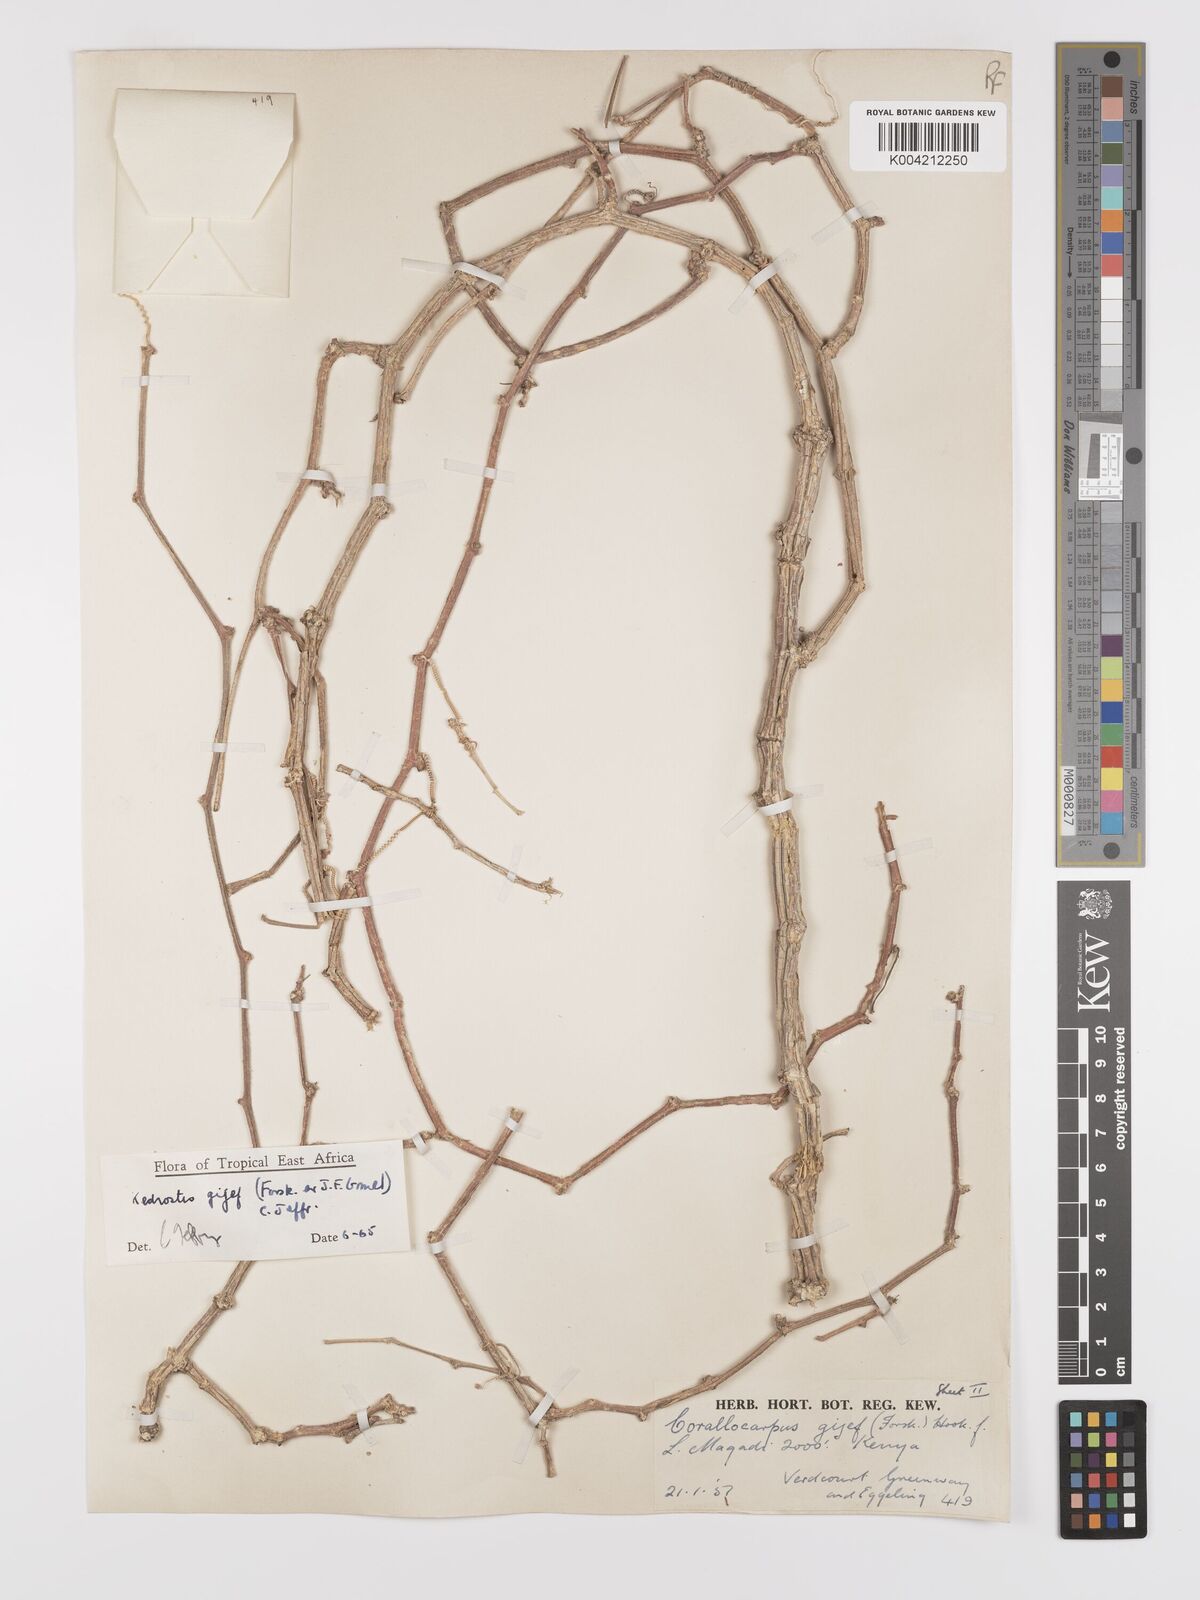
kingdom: Plantae
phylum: Tracheophyta
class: Magnoliopsida
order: Cucurbitales
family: Cucurbitaceae
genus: Kedrostis
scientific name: Kedrostis gijef
